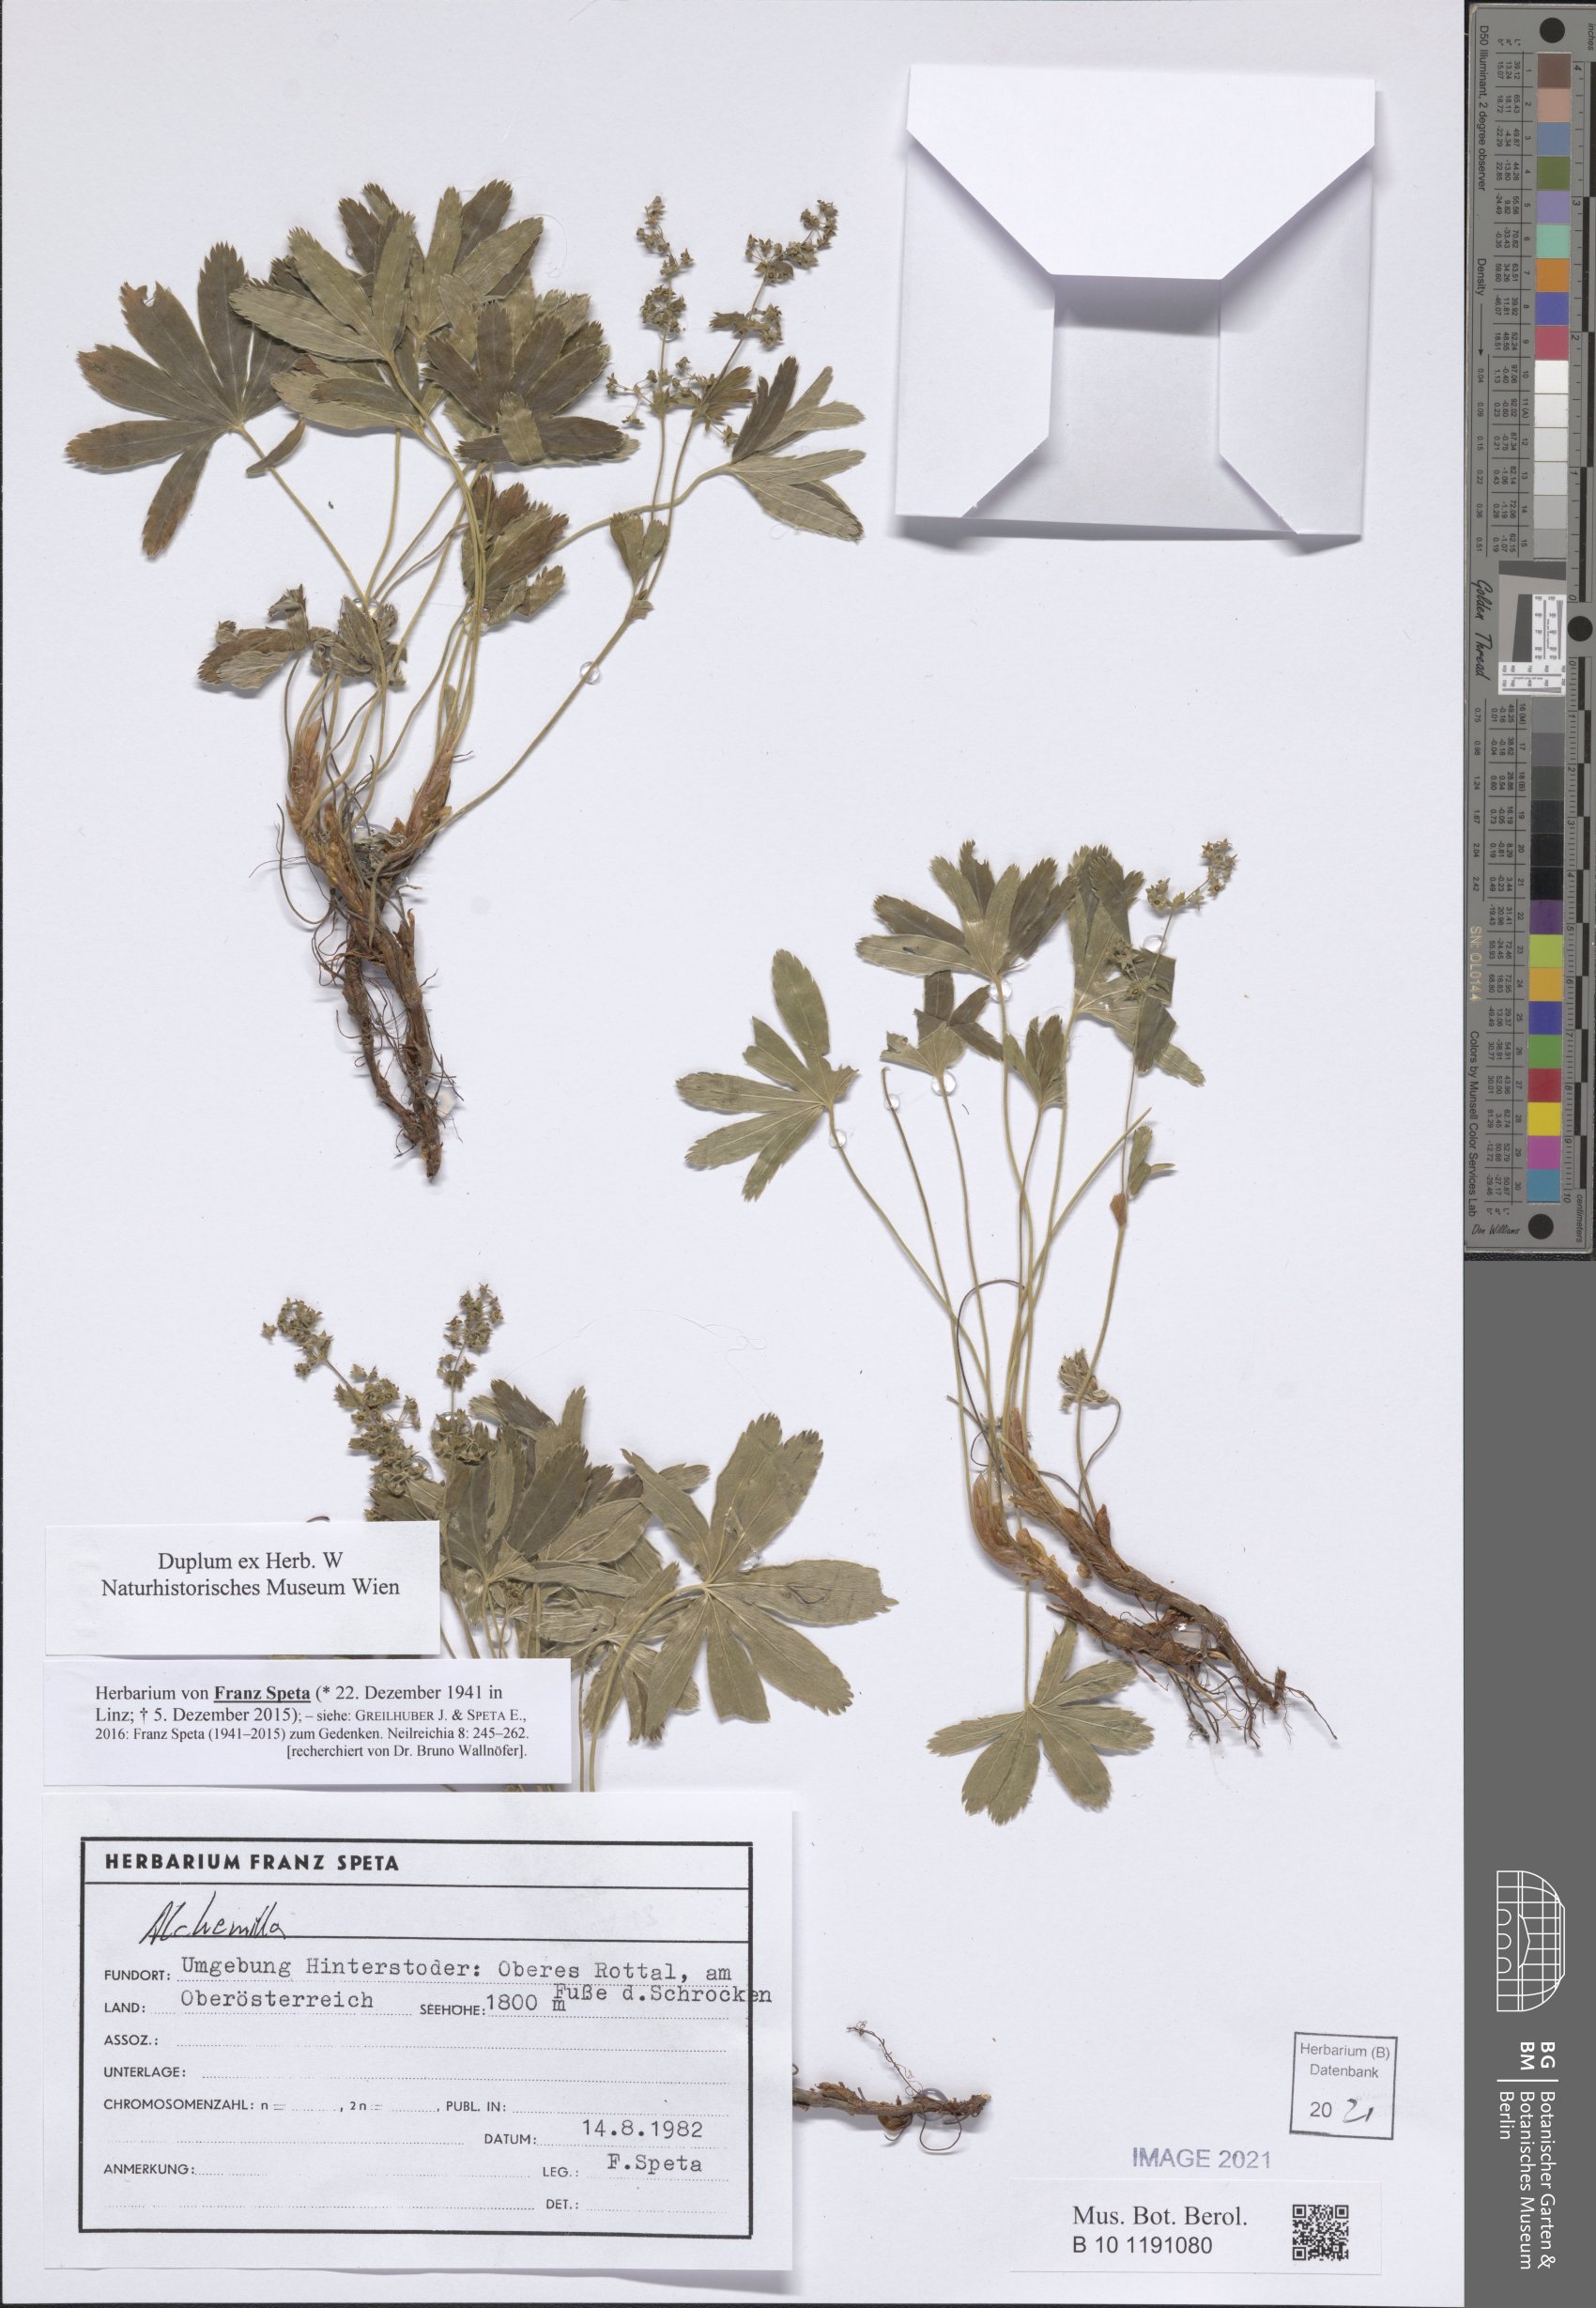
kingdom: Plantae
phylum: Tracheophyta
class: Magnoliopsida
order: Rosales
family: Rosaceae
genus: Alchemilla
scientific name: Alchemilla
